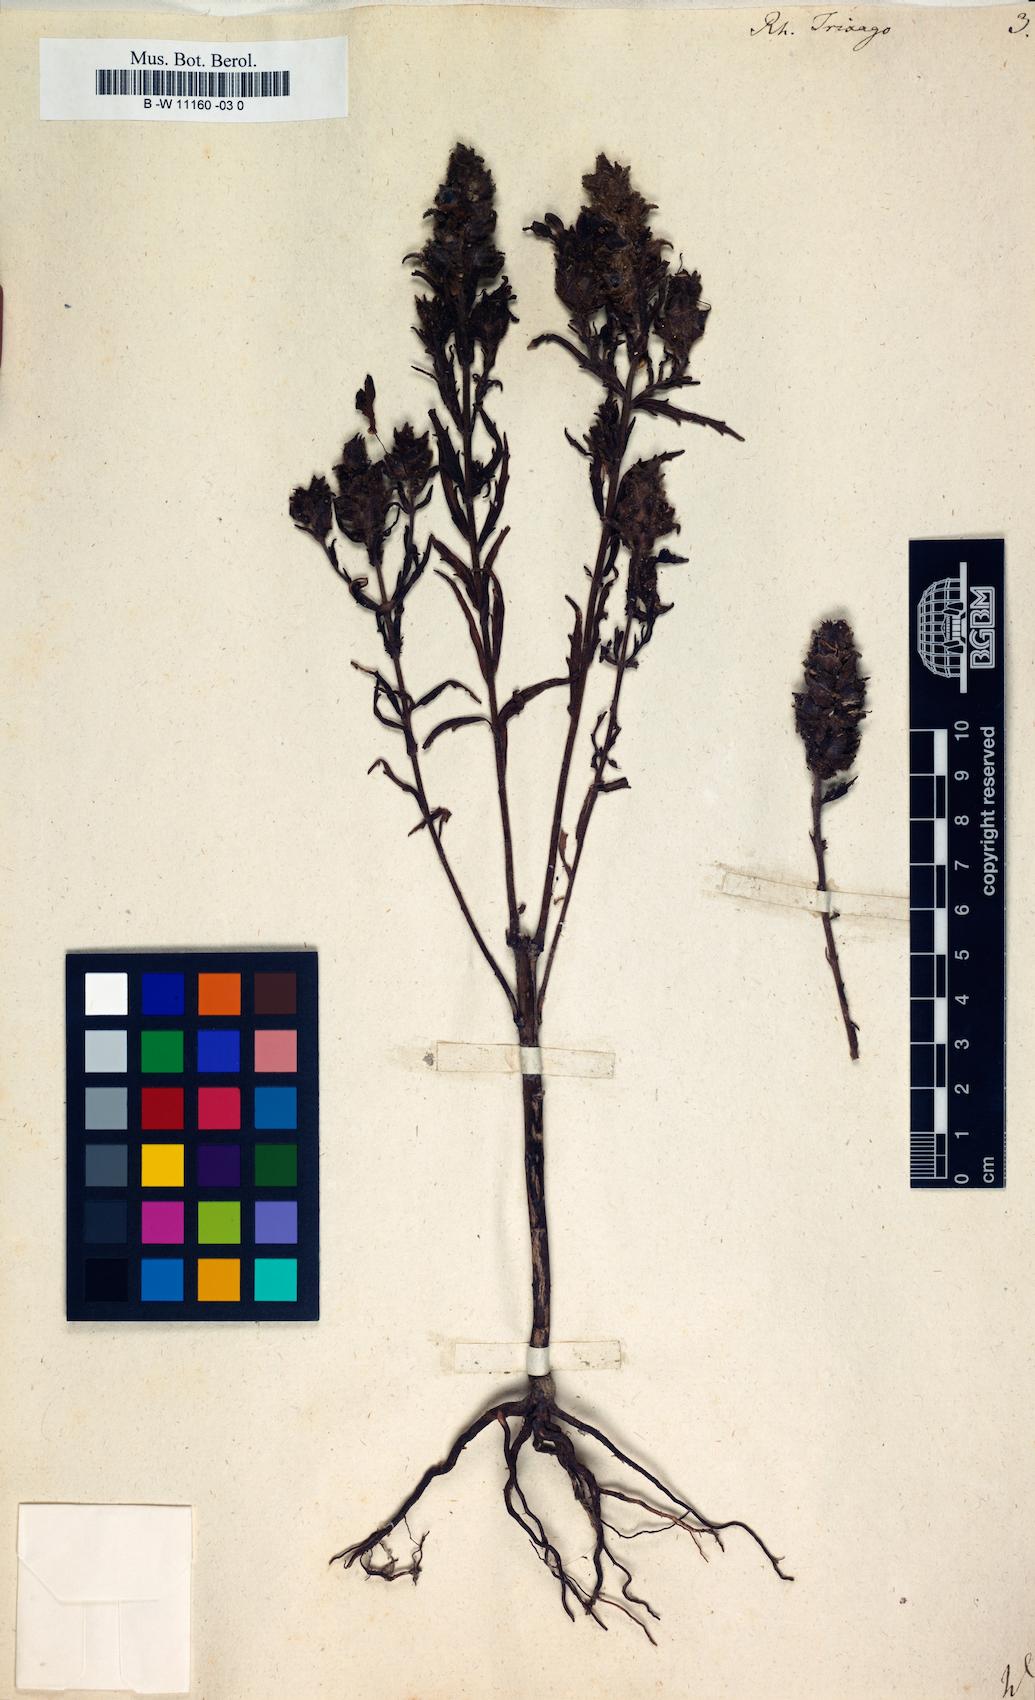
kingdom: Plantae
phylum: Tracheophyta
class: Magnoliopsida
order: Lamiales
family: Orobanchaceae
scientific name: Orobanchaceae
